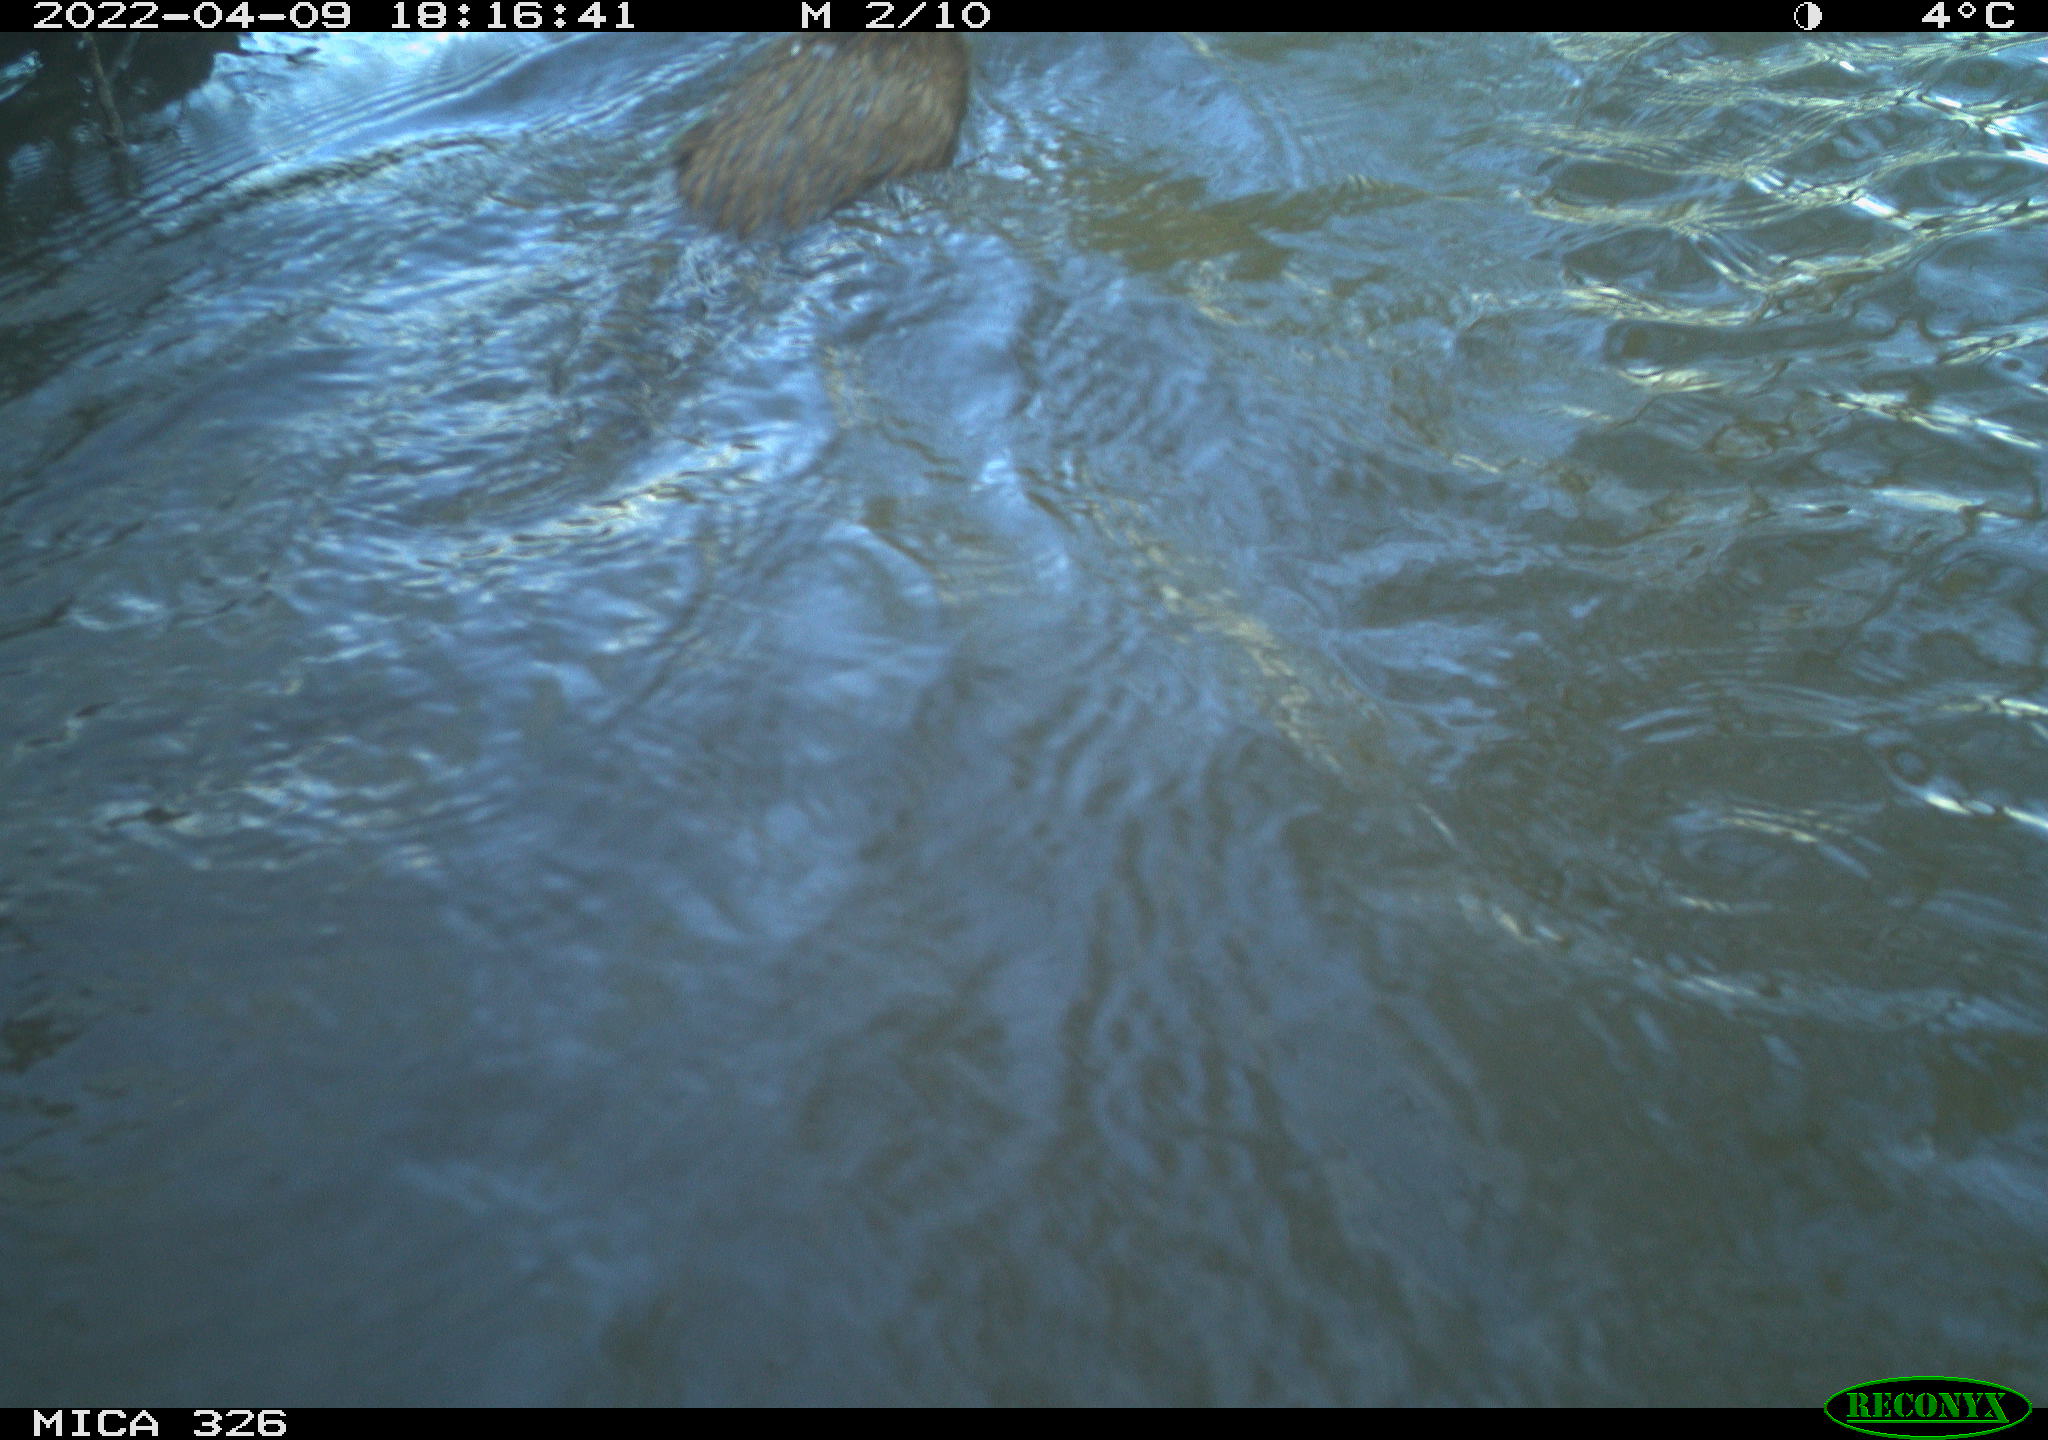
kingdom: Animalia
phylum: Chordata
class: Mammalia
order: Rodentia
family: Cricetidae
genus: Ondatra
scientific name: Ondatra zibethicus
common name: Muskrat
